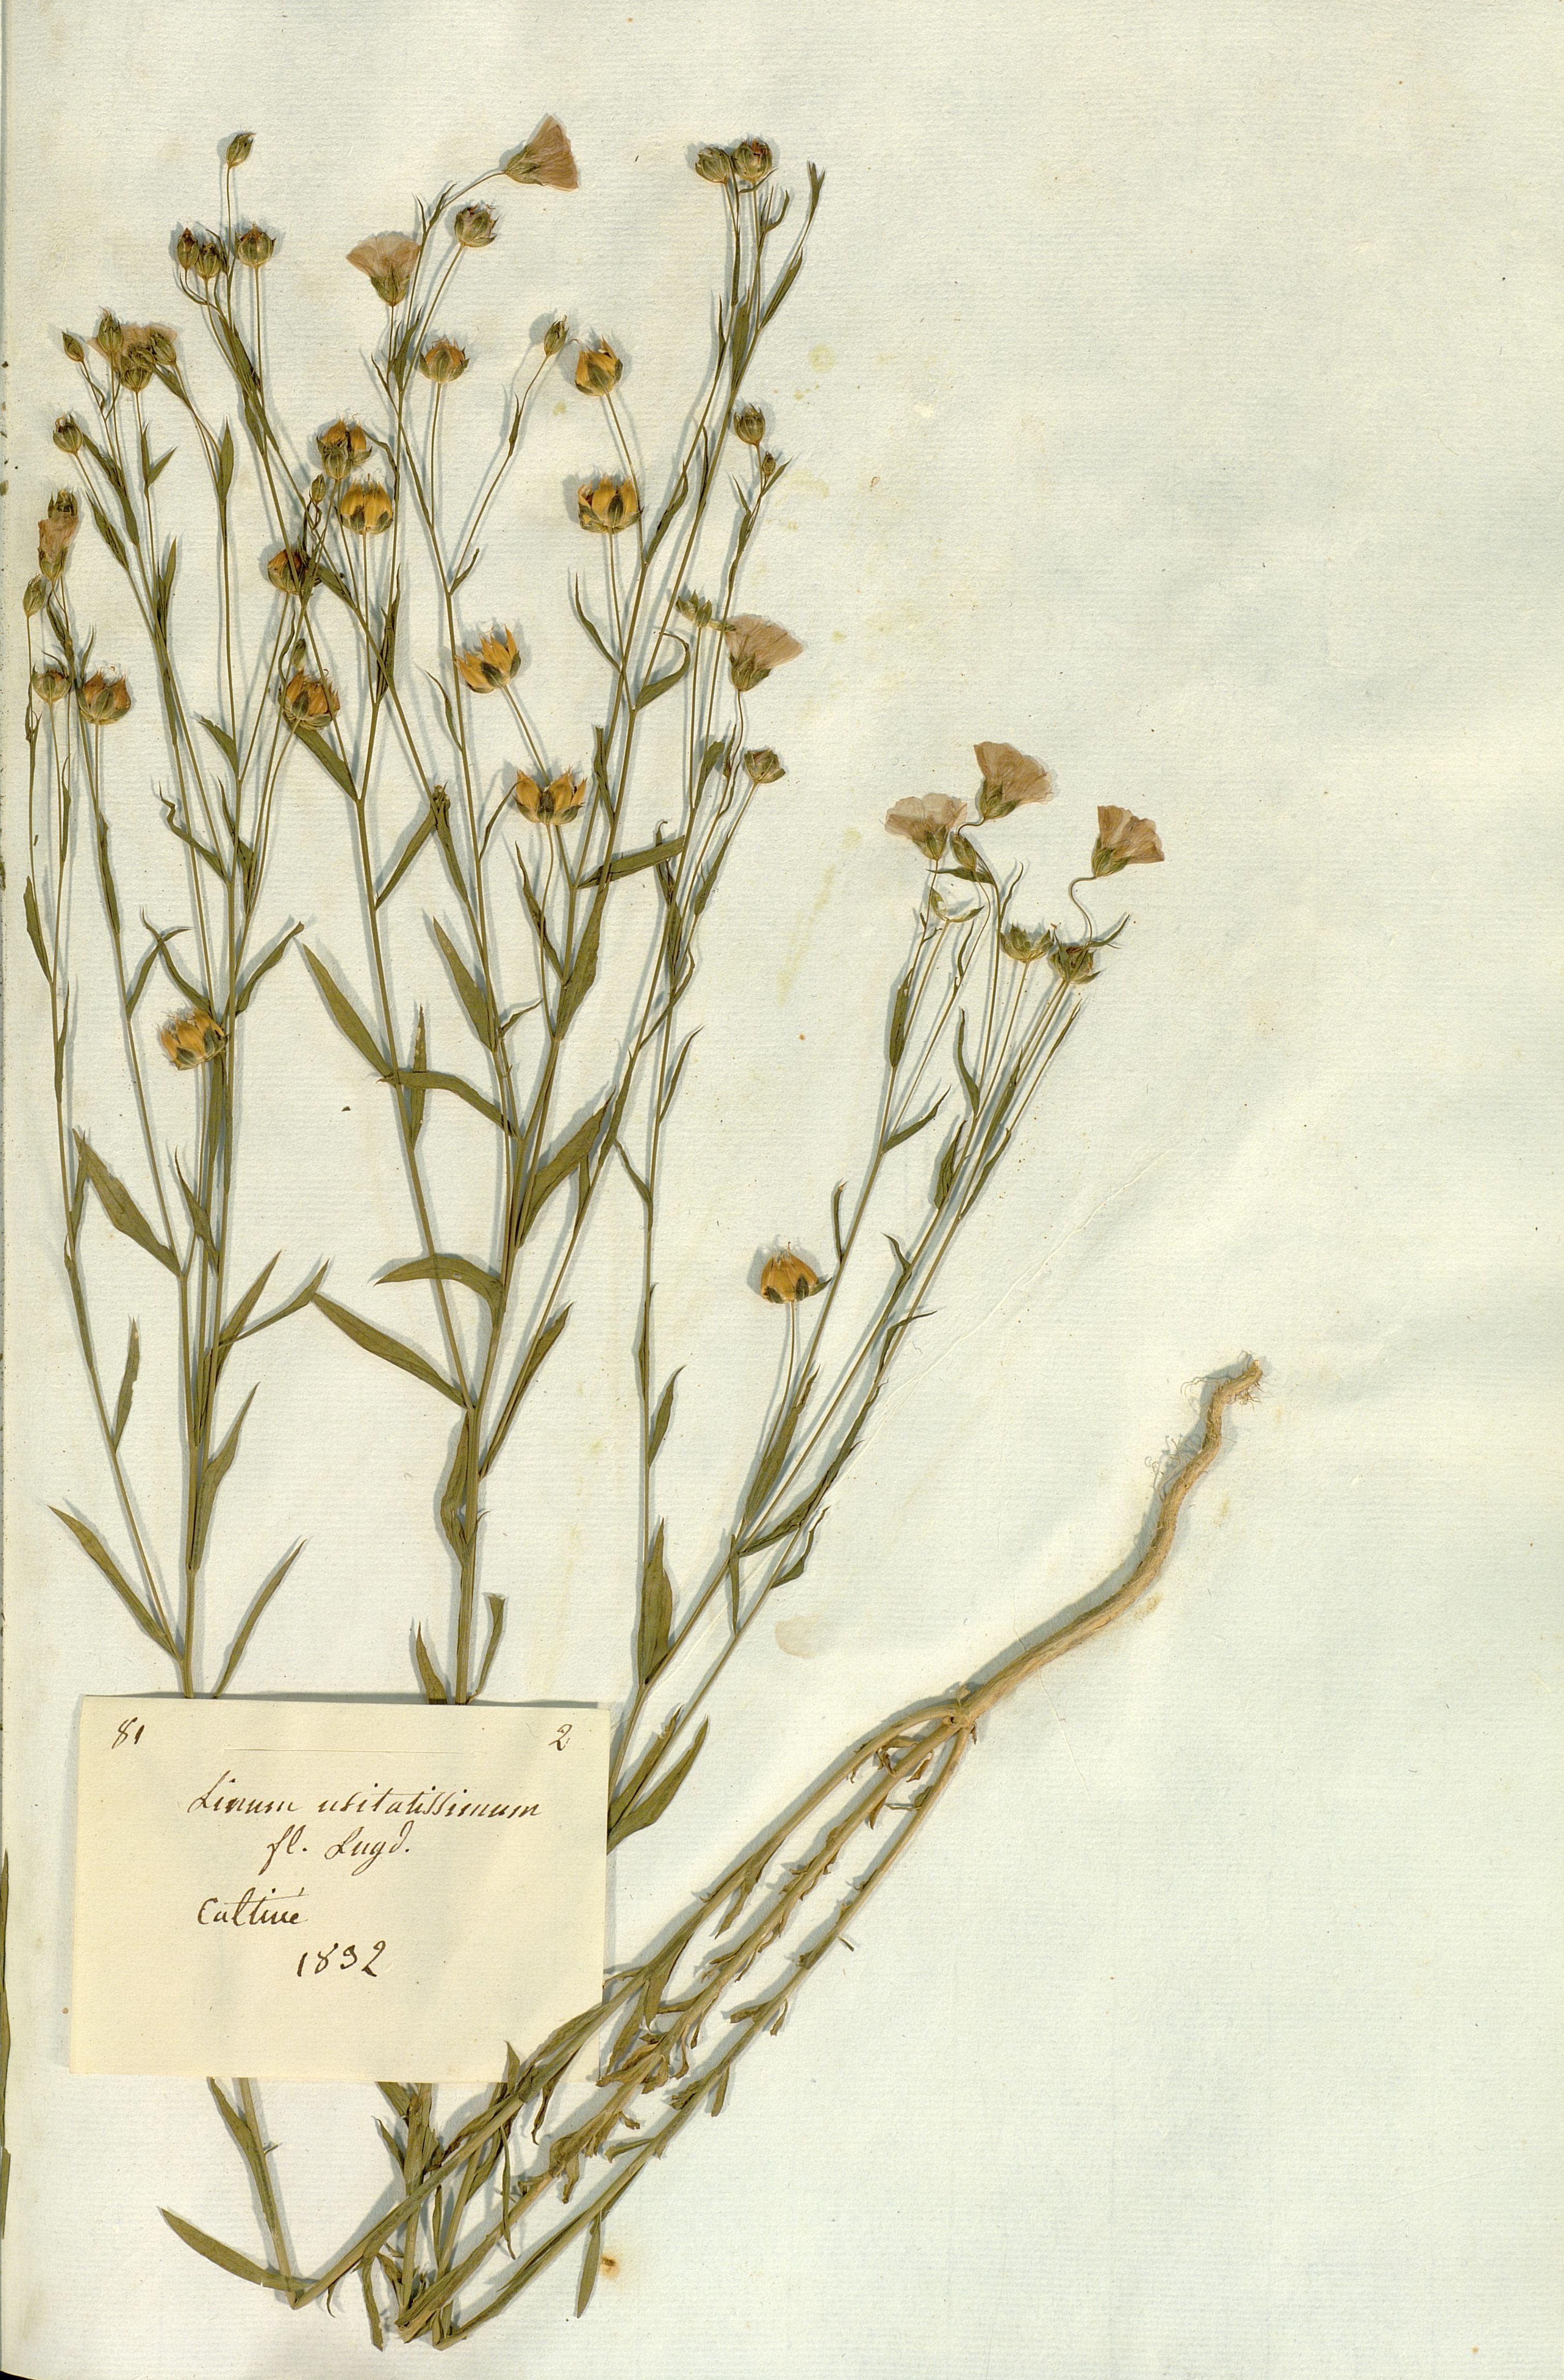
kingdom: Plantae
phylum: Tracheophyta
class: Magnoliopsida
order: Malpighiales
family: Linaceae
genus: Linum
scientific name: Linum usitatissimum
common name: Flax
